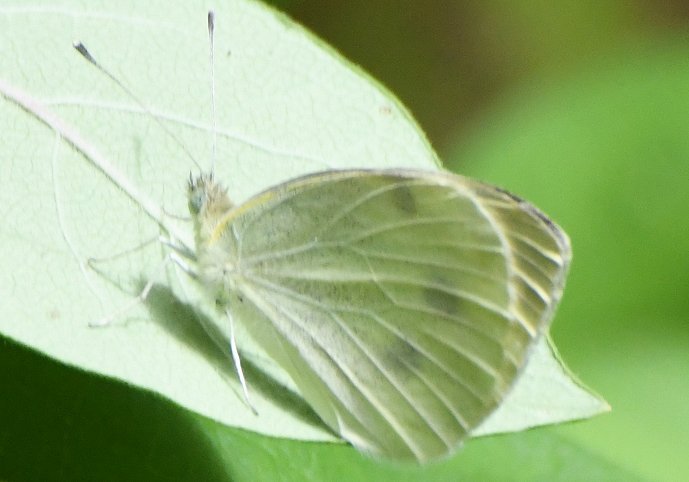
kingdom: Animalia
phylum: Arthropoda
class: Insecta
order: Lepidoptera
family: Pieridae
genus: Pieris
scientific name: Pieris rapae
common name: Cabbage White
